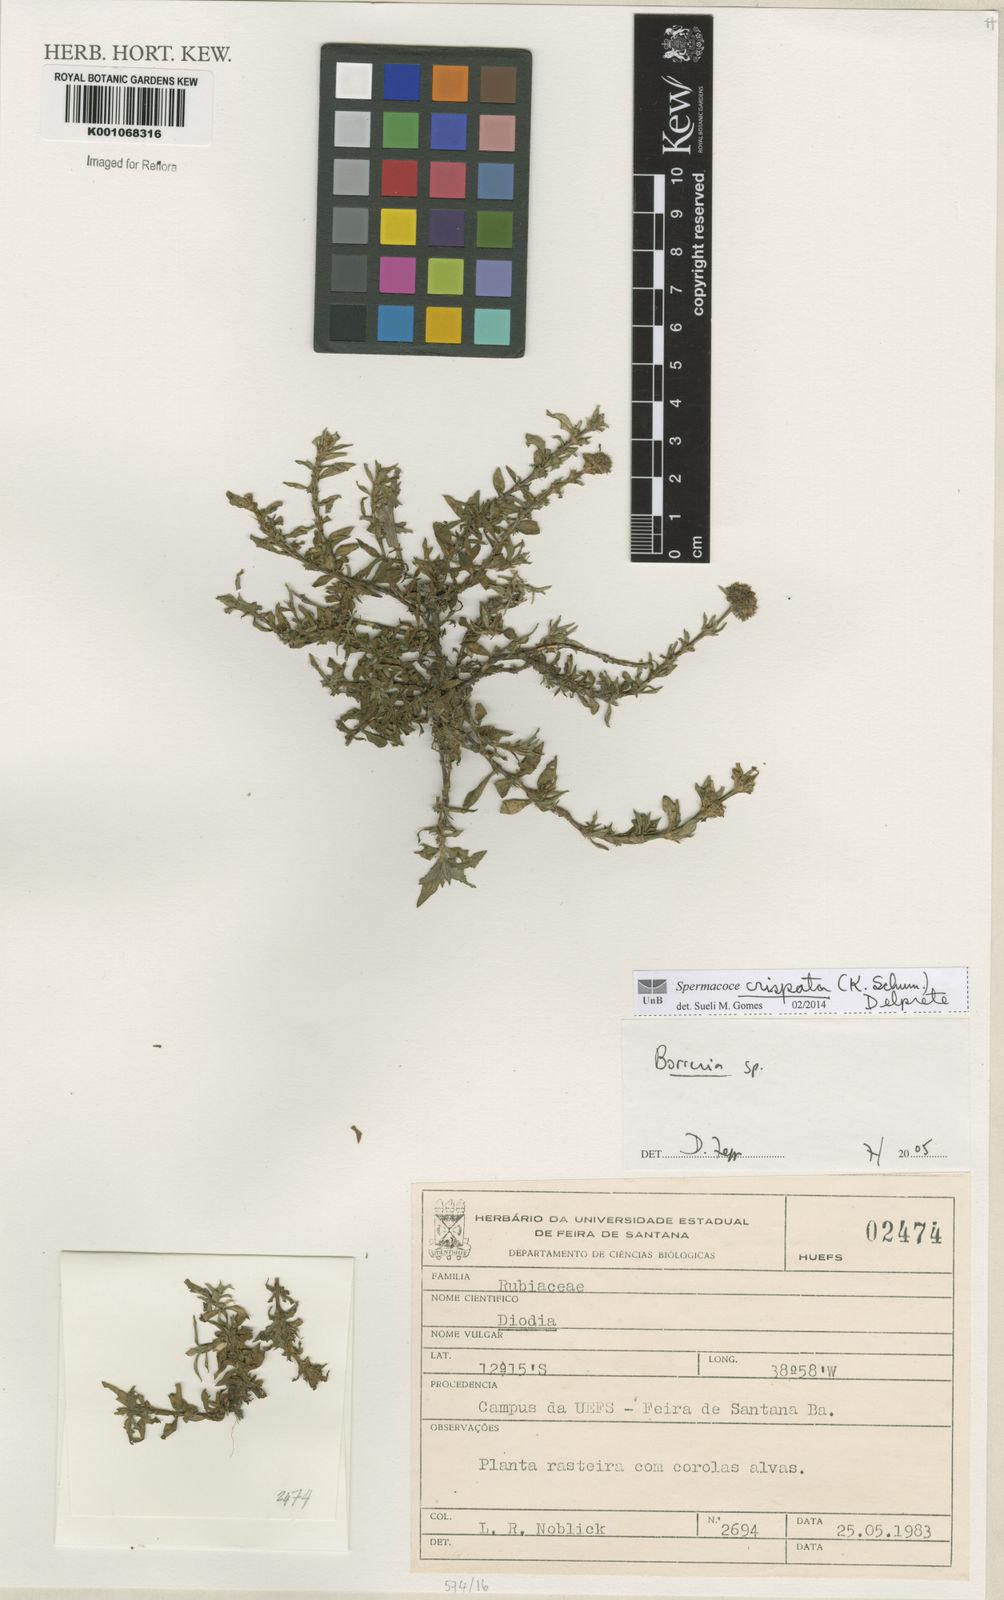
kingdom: Plantae
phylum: Tracheophyta
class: Magnoliopsida
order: Gentianales
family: Rubiaceae
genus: Spermacoce
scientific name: Spermacoce crispata
